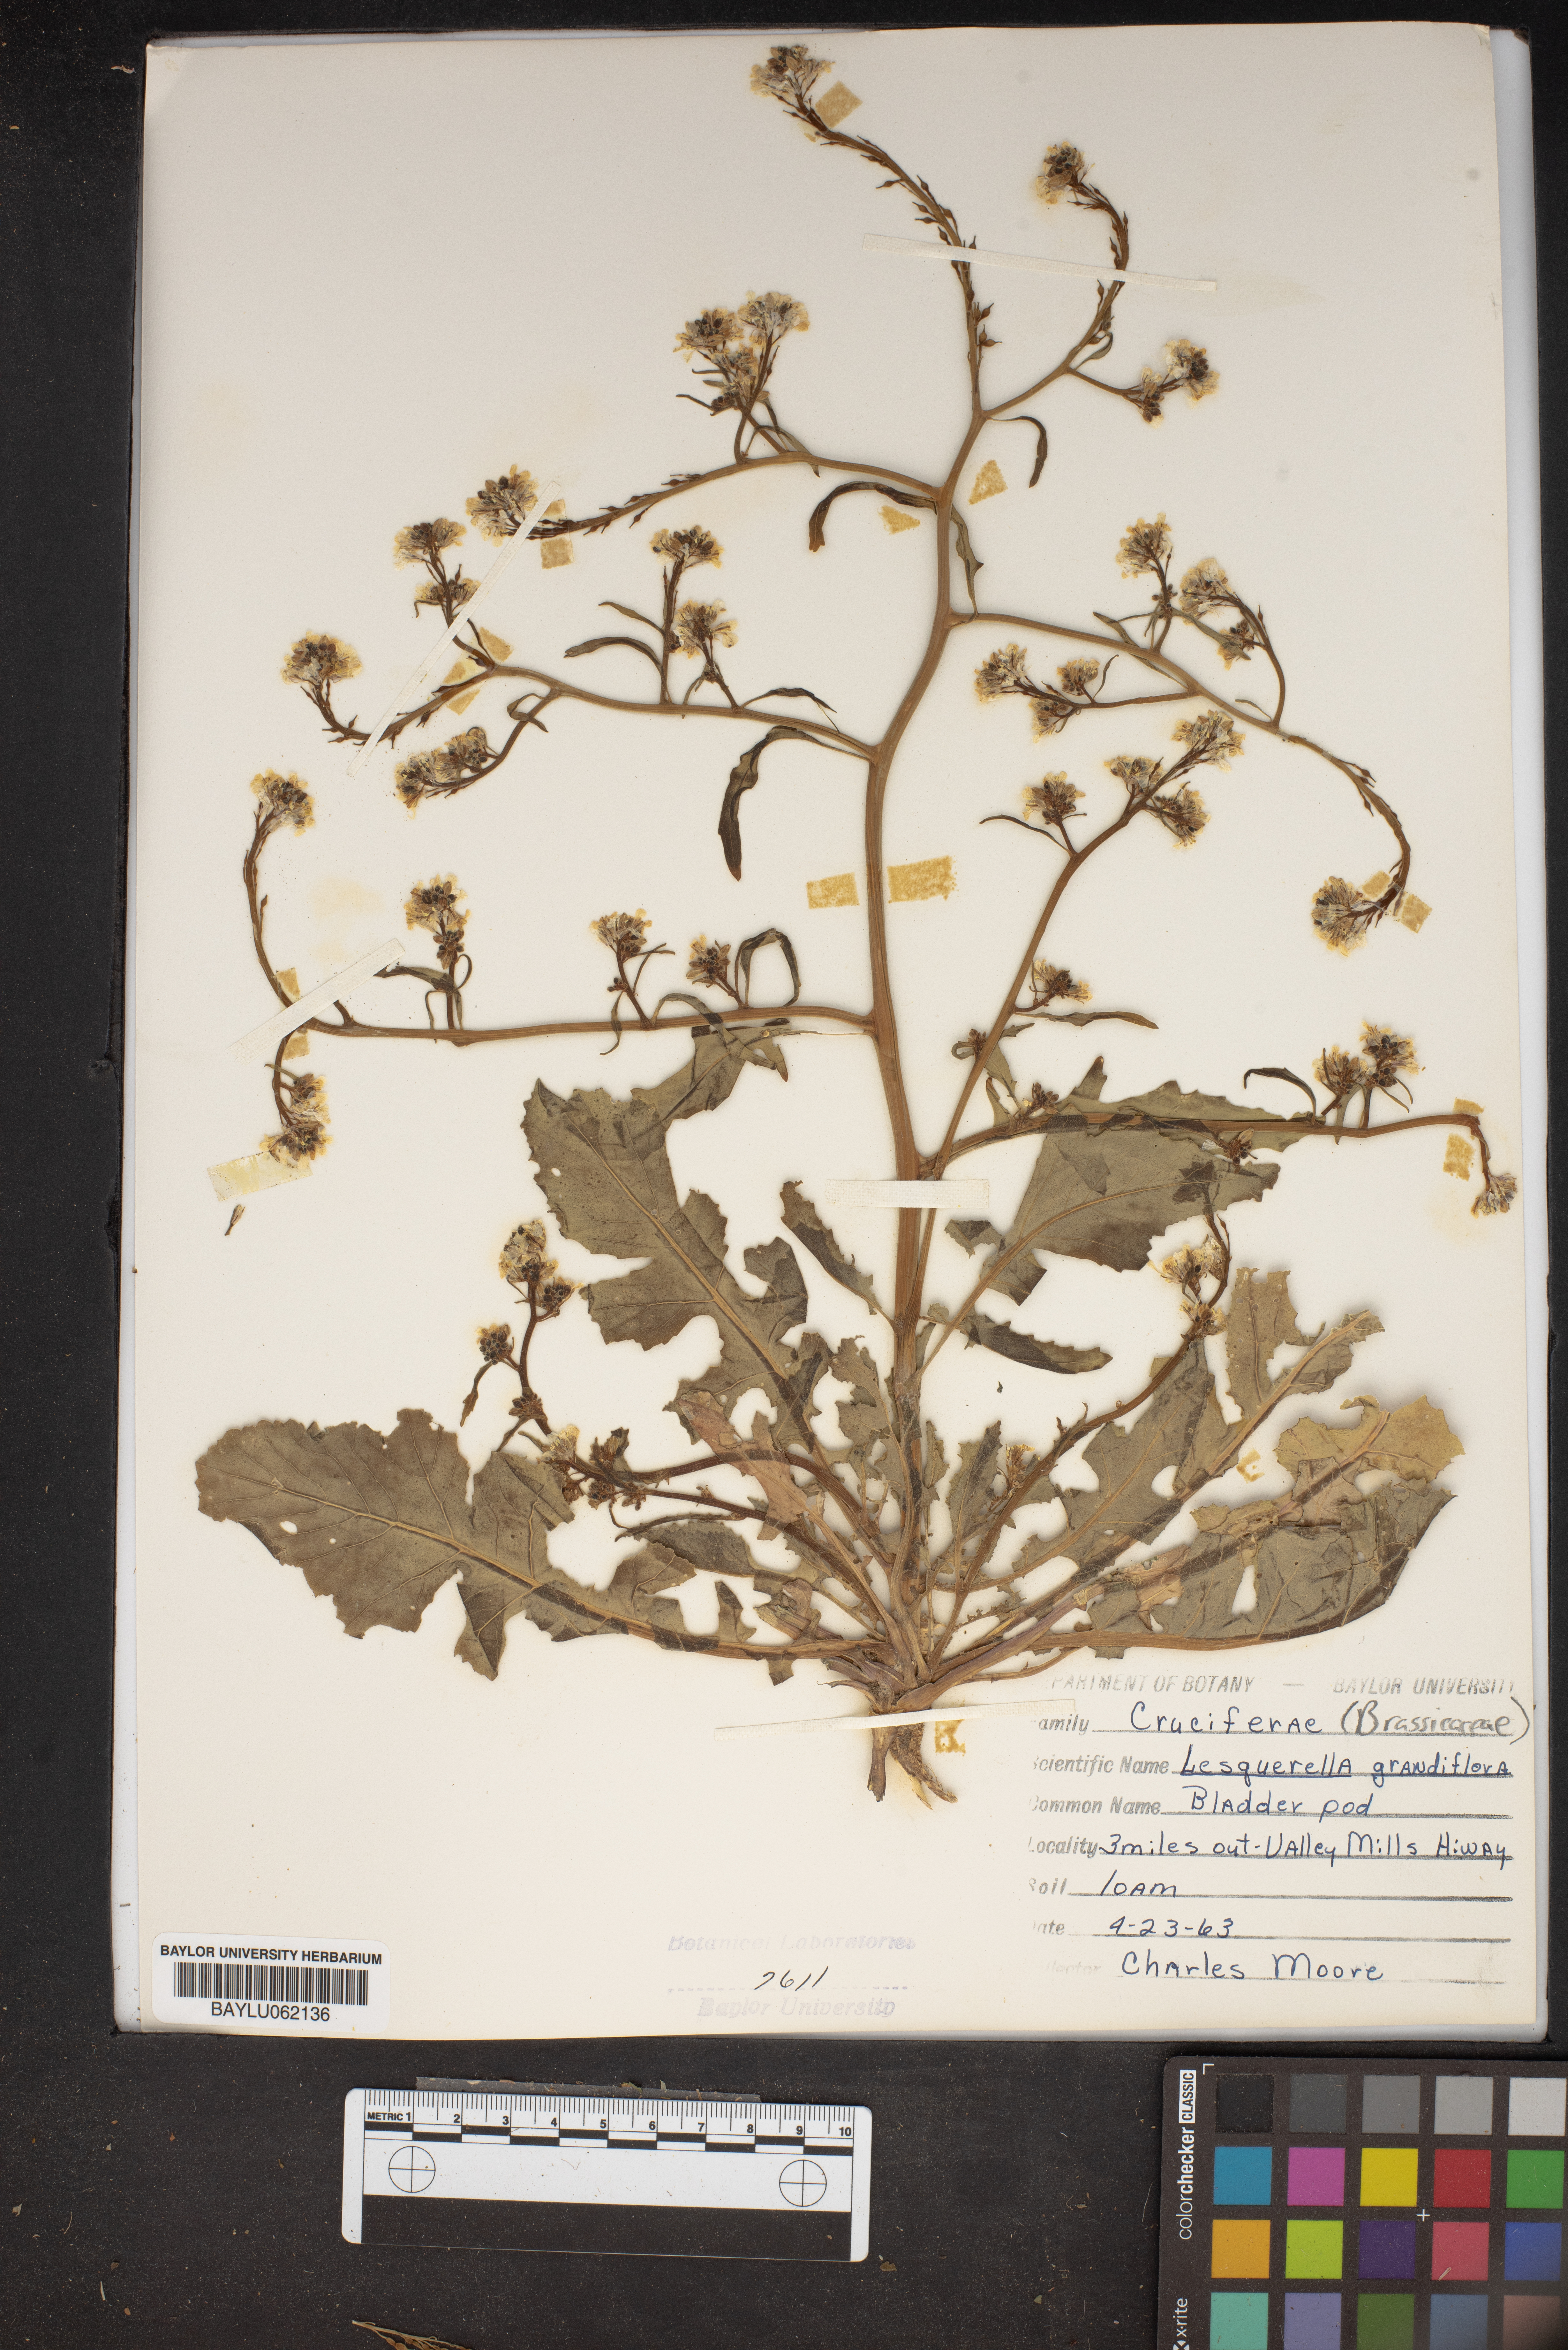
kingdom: Plantae
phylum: Tracheophyta
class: Magnoliopsida
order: Brassicales
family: Brassicaceae
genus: Paysonia
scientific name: Paysonia grandiflora
